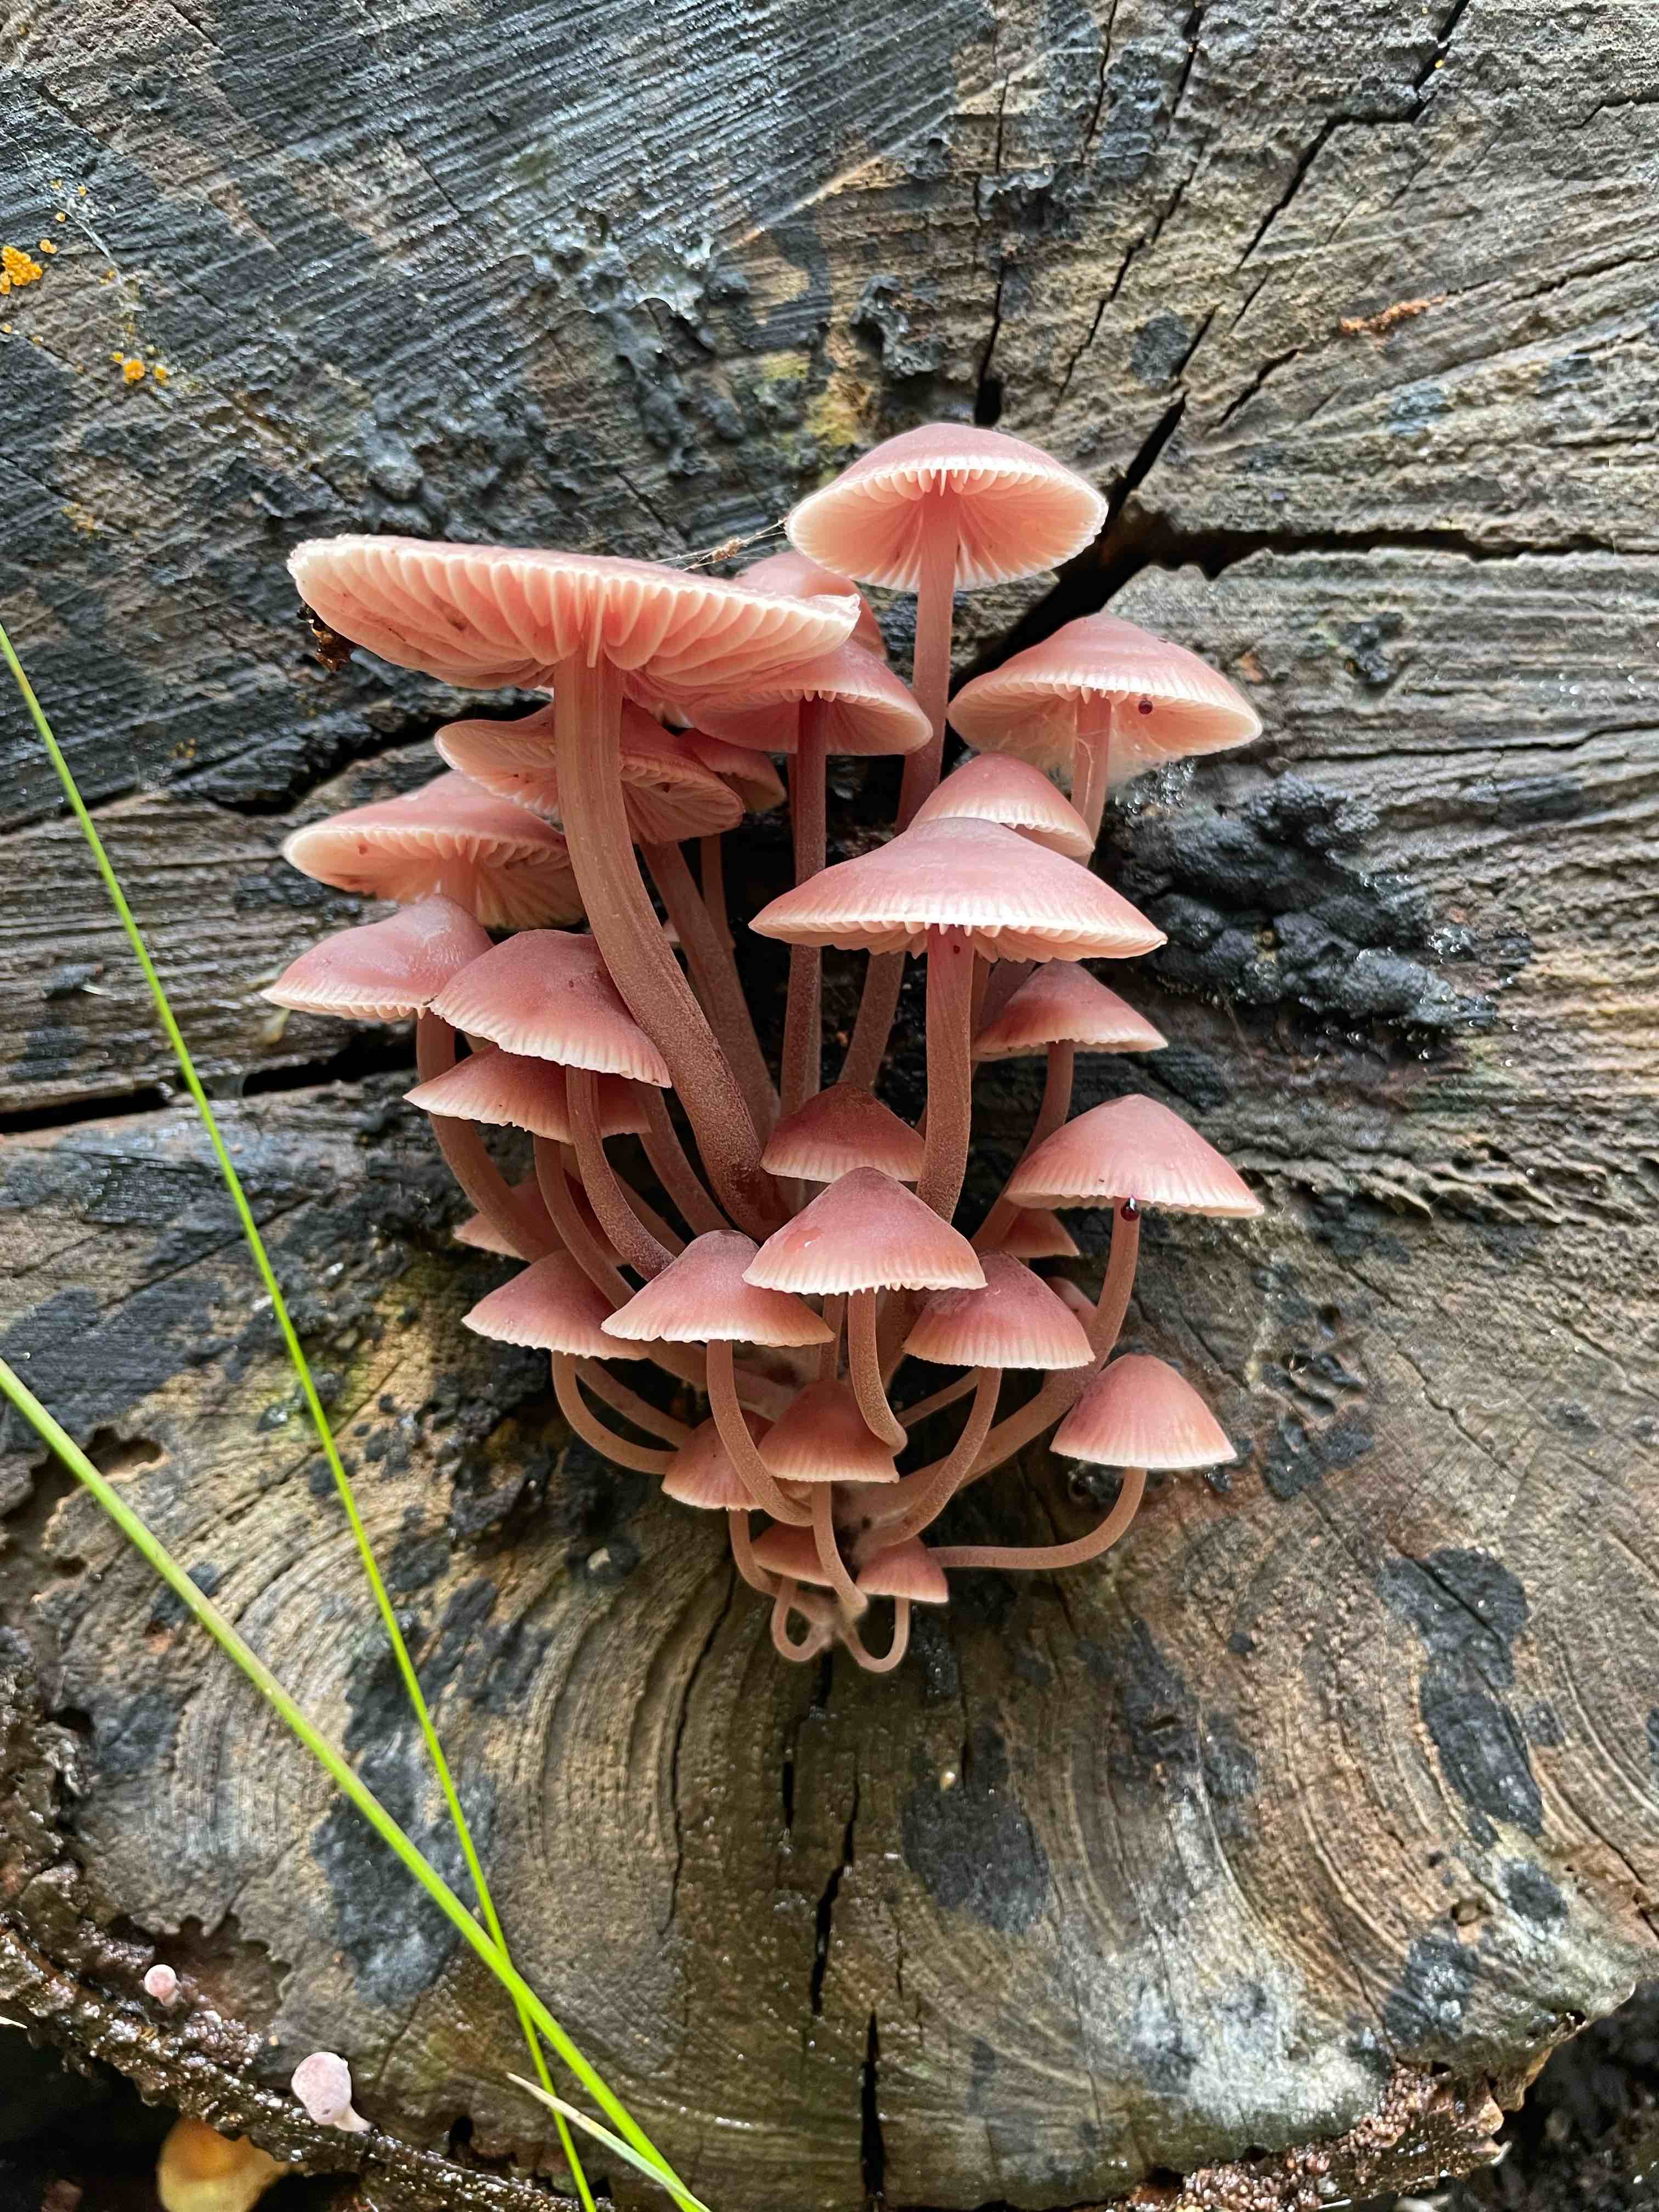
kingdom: Fungi
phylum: Basidiomycota
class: Agaricomycetes
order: Agaricales
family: Mycenaceae
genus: Mycena
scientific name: Mycena haematopus
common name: blødende huesvamp
